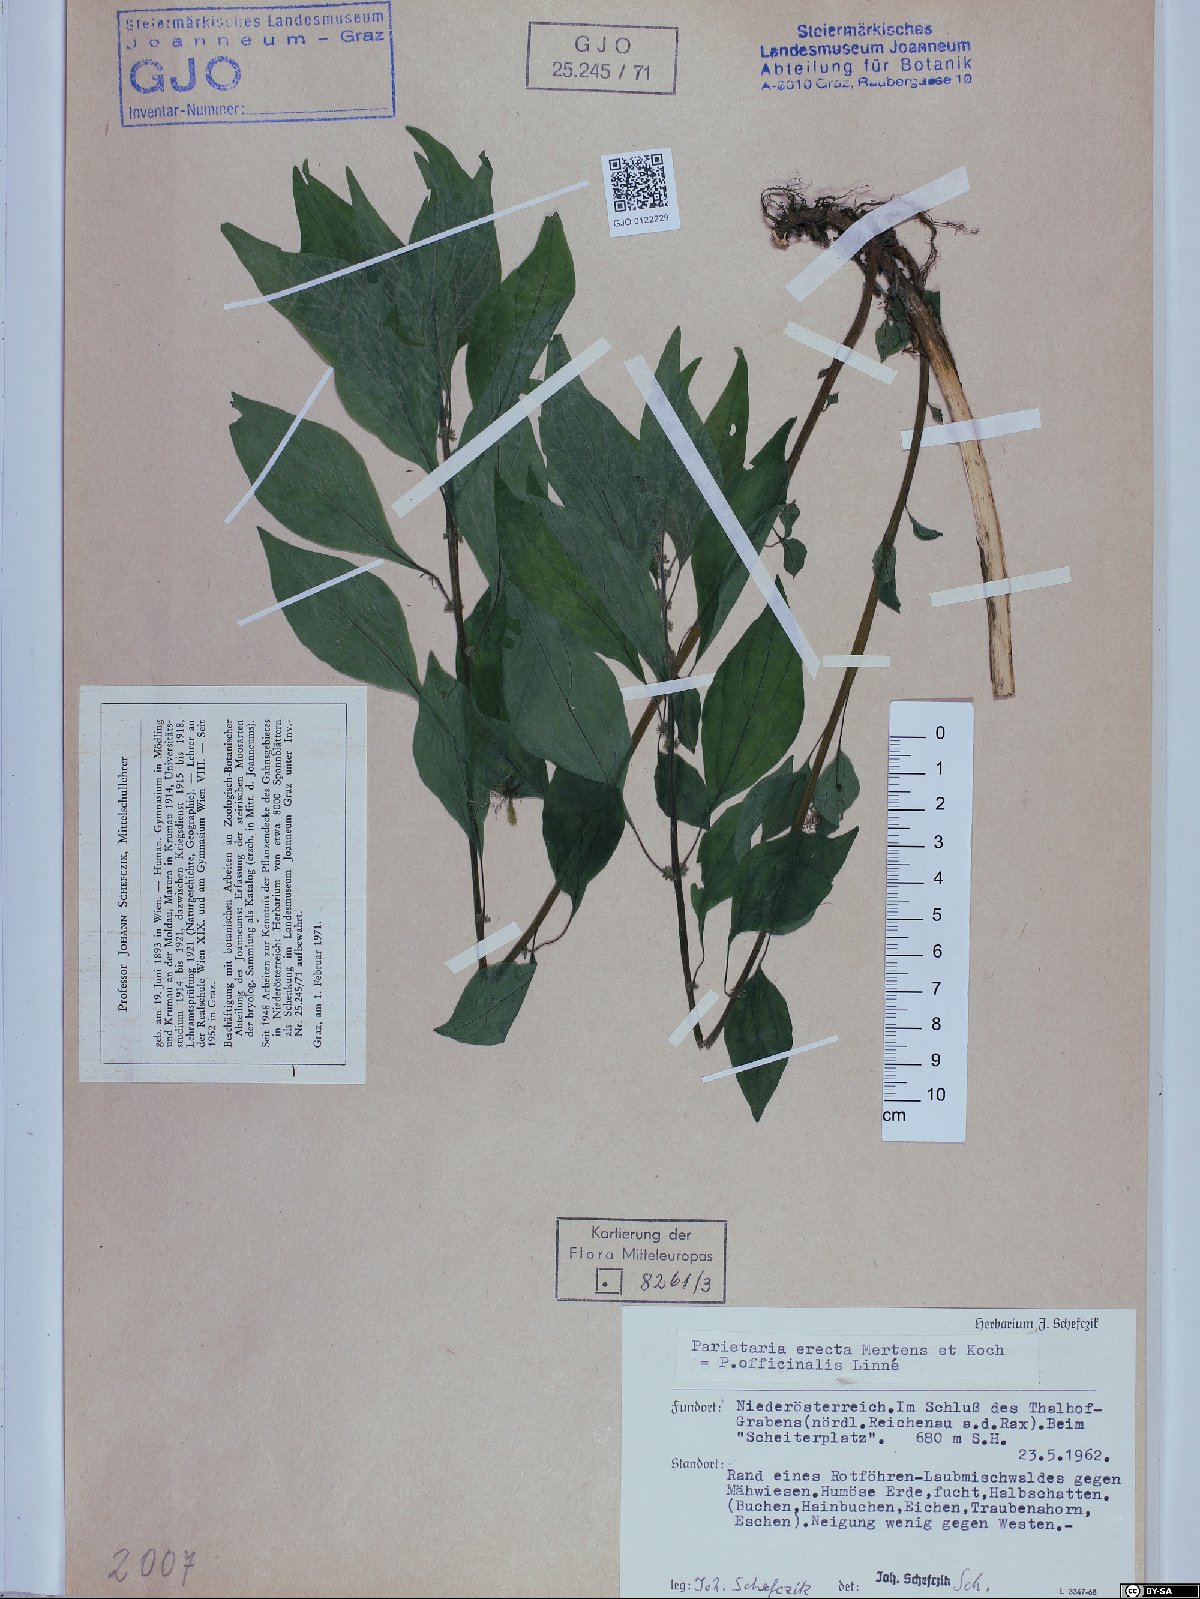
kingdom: Plantae
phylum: Tracheophyta
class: Magnoliopsida
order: Rosales
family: Urticaceae
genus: Parietaria
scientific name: Parietaria officinalis
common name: Eastern pellitory-of-the-wall
